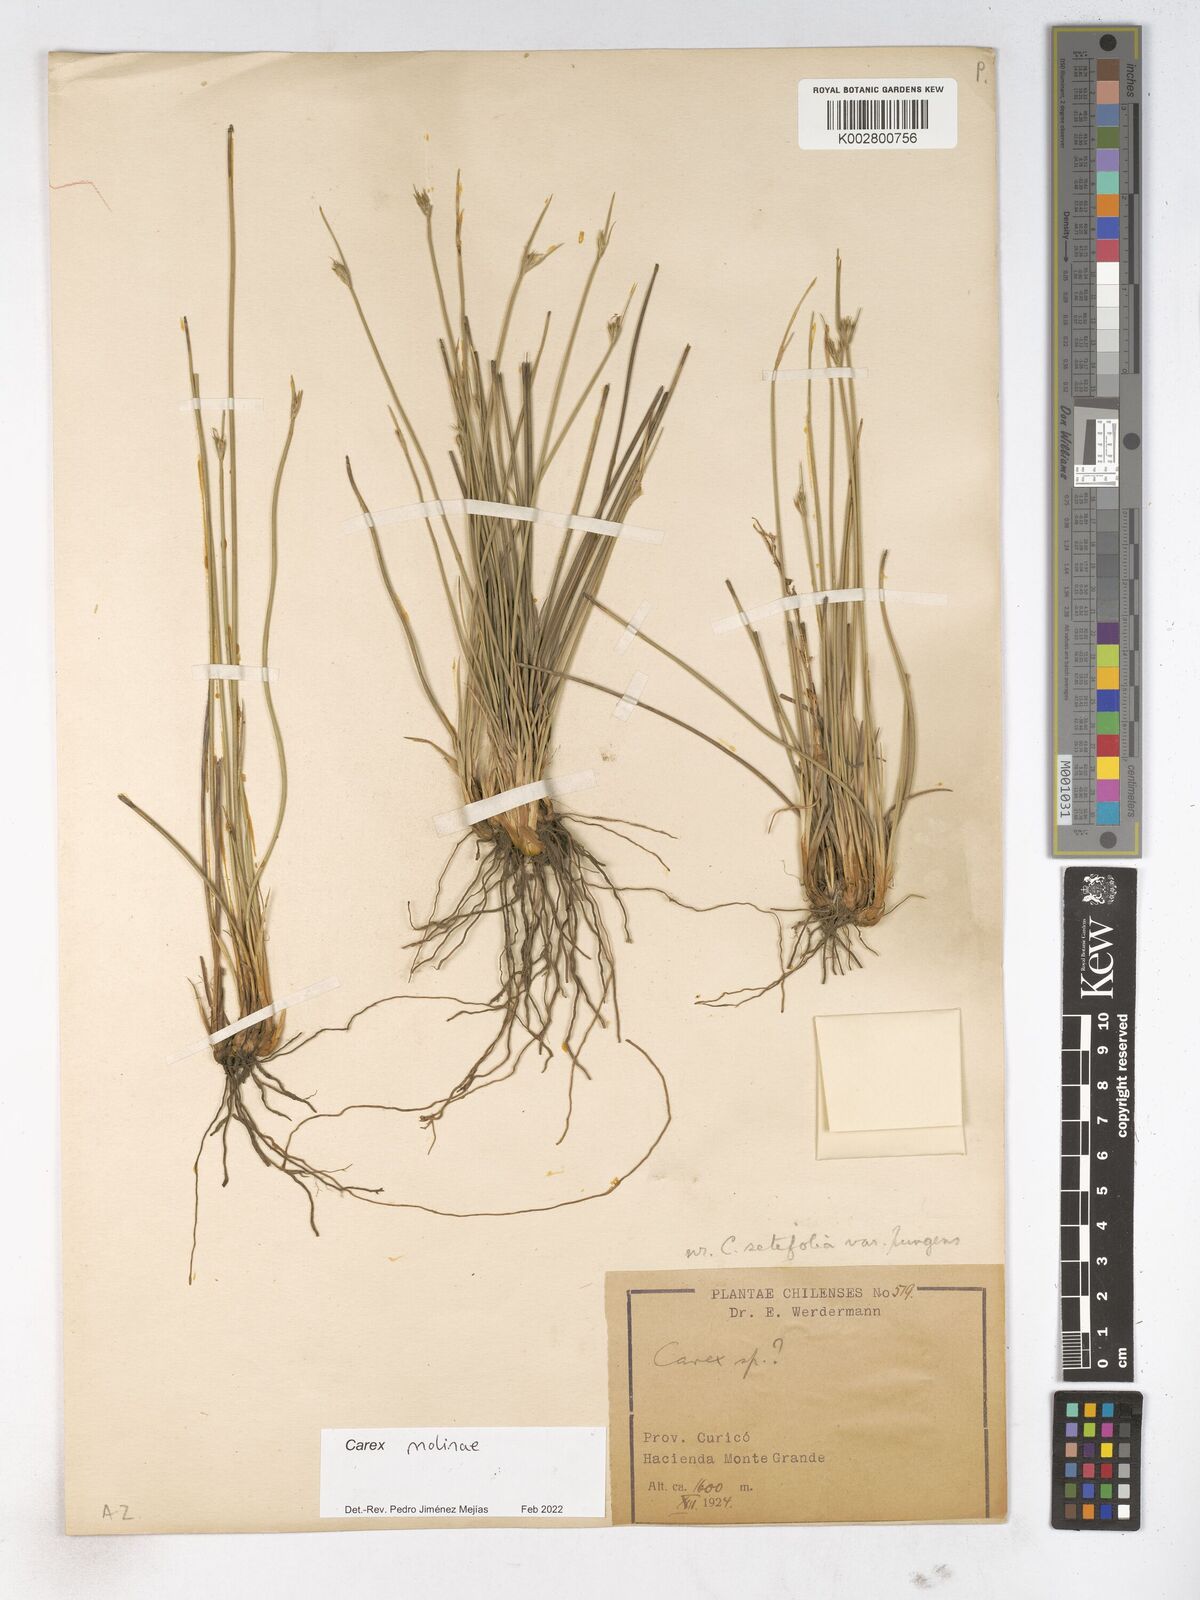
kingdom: Plantae
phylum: Tracheophyta
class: Liliopsida
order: Poales
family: Cyperaceae
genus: Carex
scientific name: Carex
